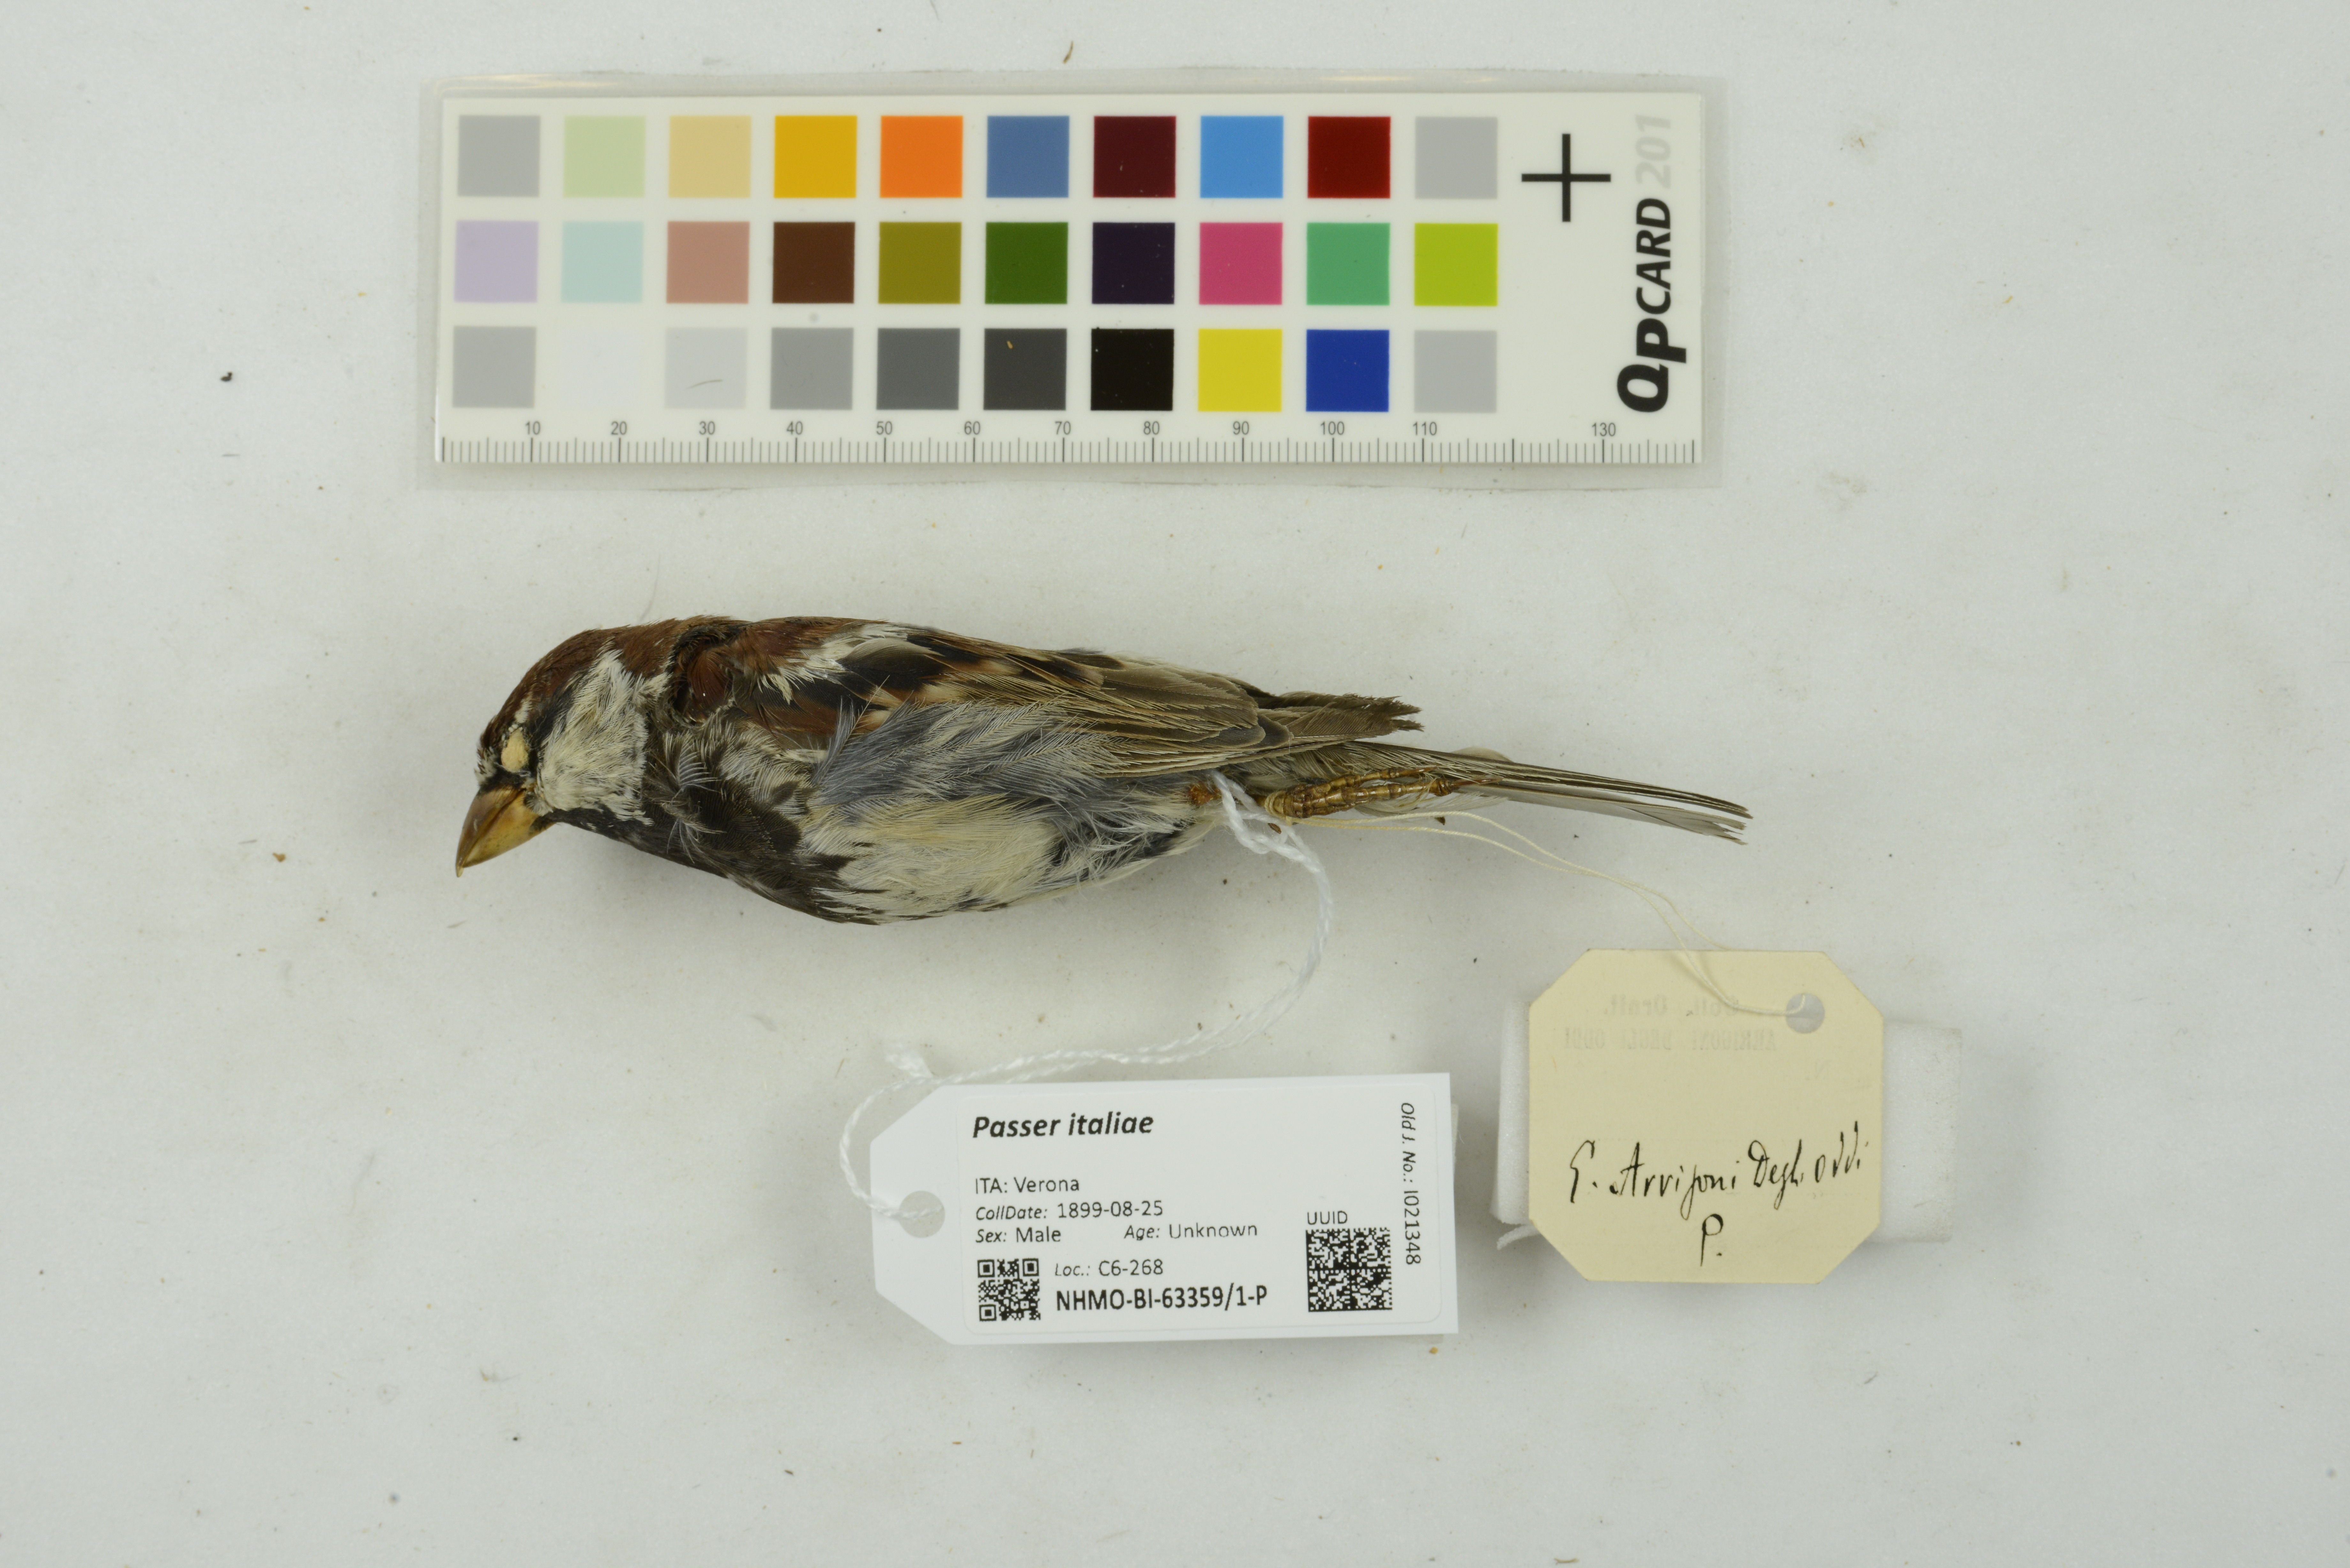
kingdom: Animalia
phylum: Chordata
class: Aves
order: Passeriformes
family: Passeridae
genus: Passer
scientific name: Passer italiae
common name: Italian sparrow
